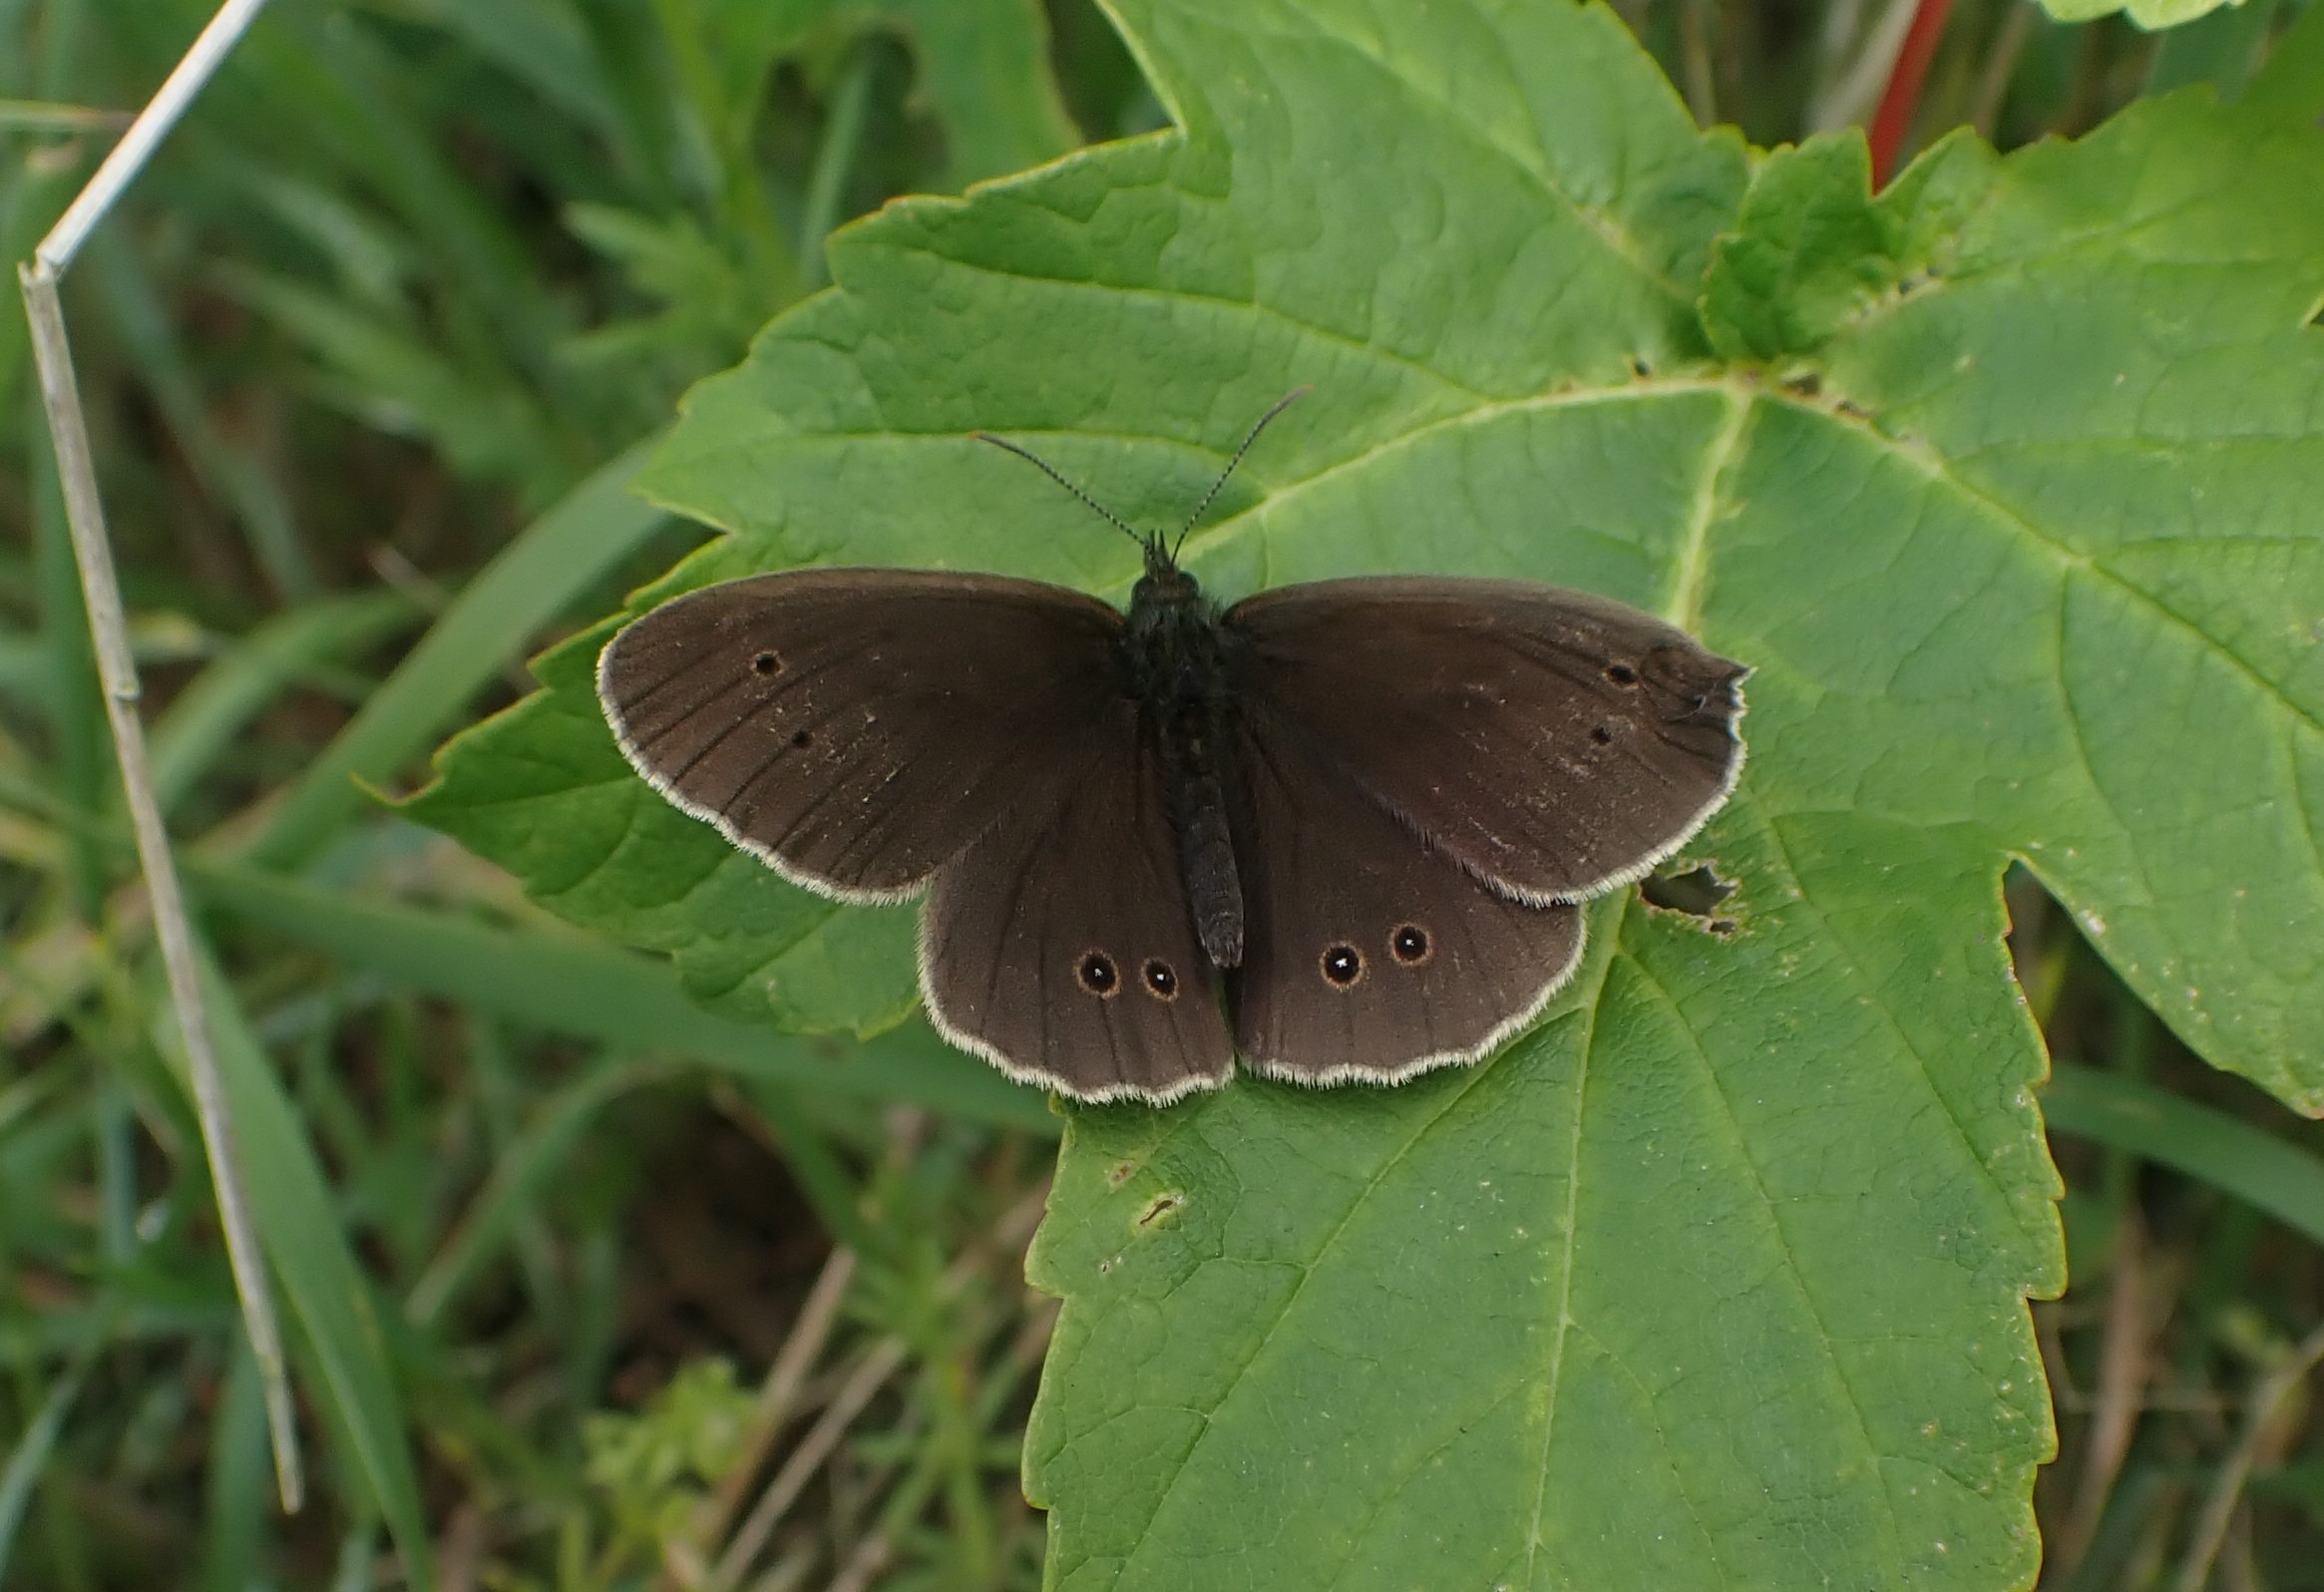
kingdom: Animalia
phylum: Arthropoda
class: Insecta
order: Lepidoptera
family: Nymphalidae
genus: Aphantopus
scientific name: Aphantopus hyperantus
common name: Engrandøje
